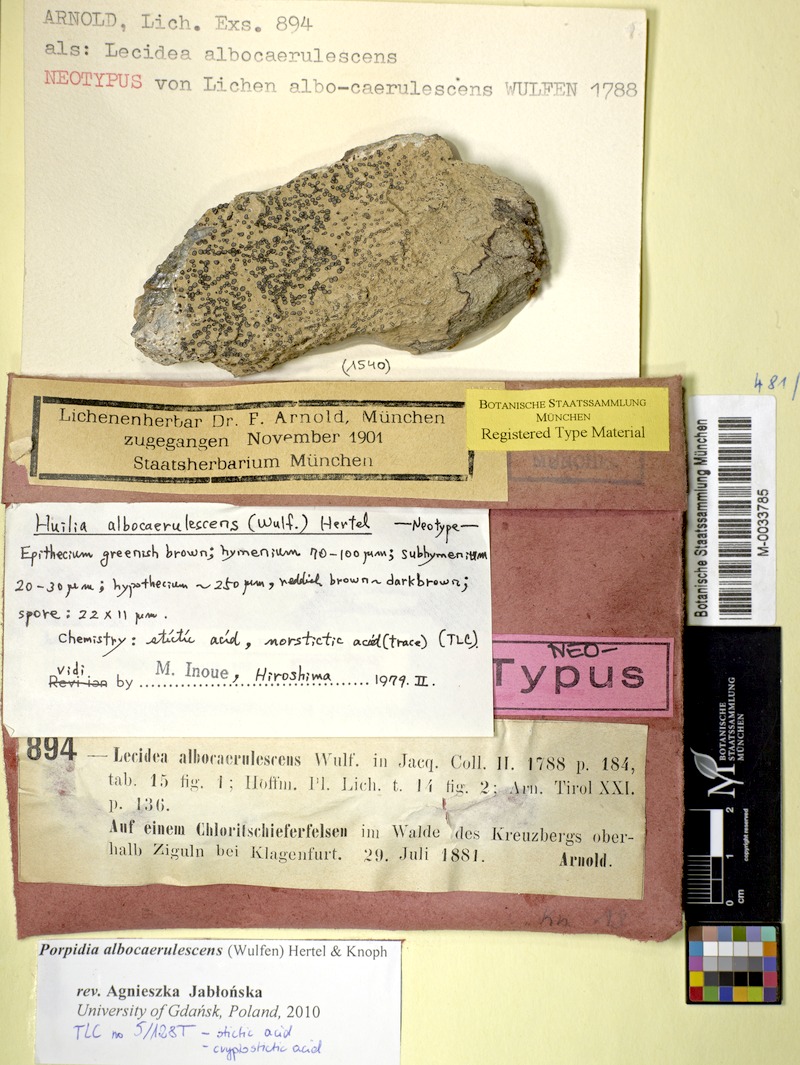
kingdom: Fungi
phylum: Ascomycota
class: Lecanoromycetes
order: Lecideales
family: Lecideaceae
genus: Porpidia
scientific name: Porpidia albocaerulescens
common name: Smokey-eyed boulder lichen
